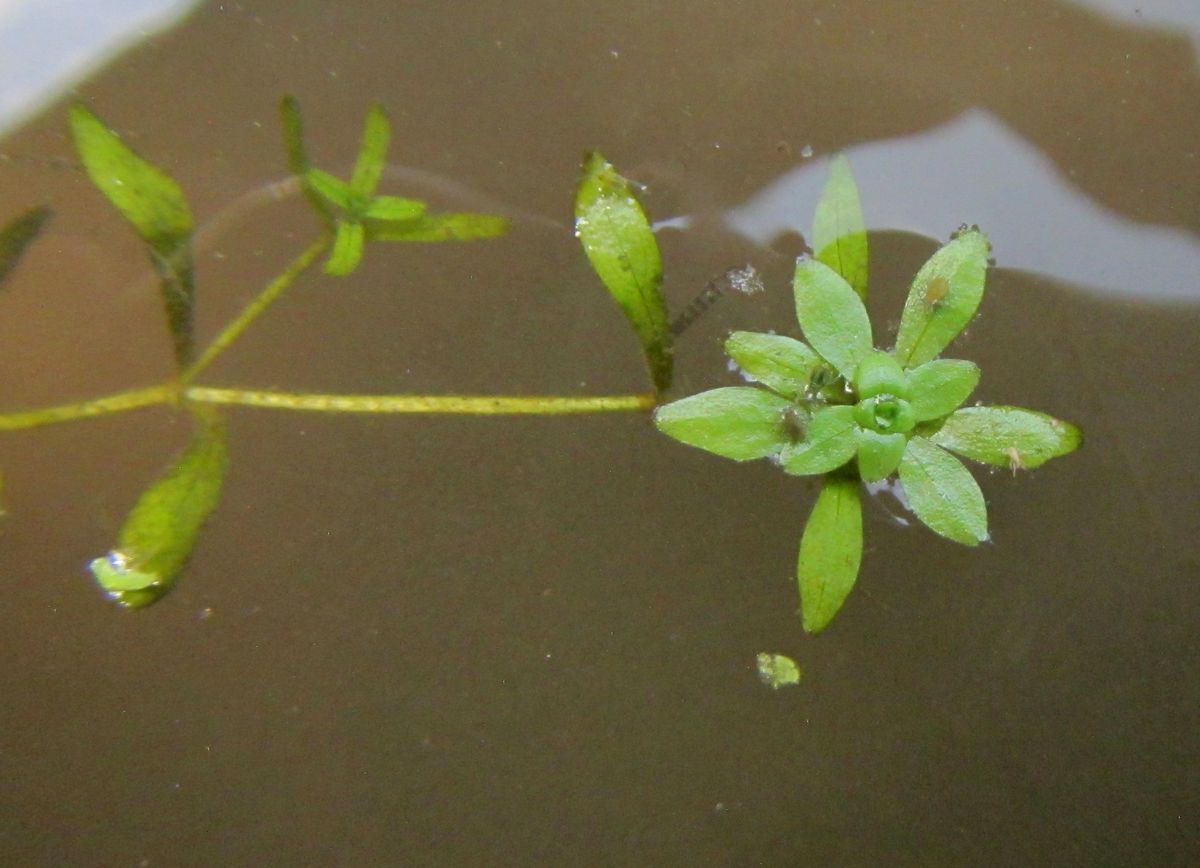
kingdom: Plantae
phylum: Tracheophyta
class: Magnoliopsida
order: Lamiales
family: Plantaginaceae
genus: Callitriche
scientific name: Callitriche cophocarpa
